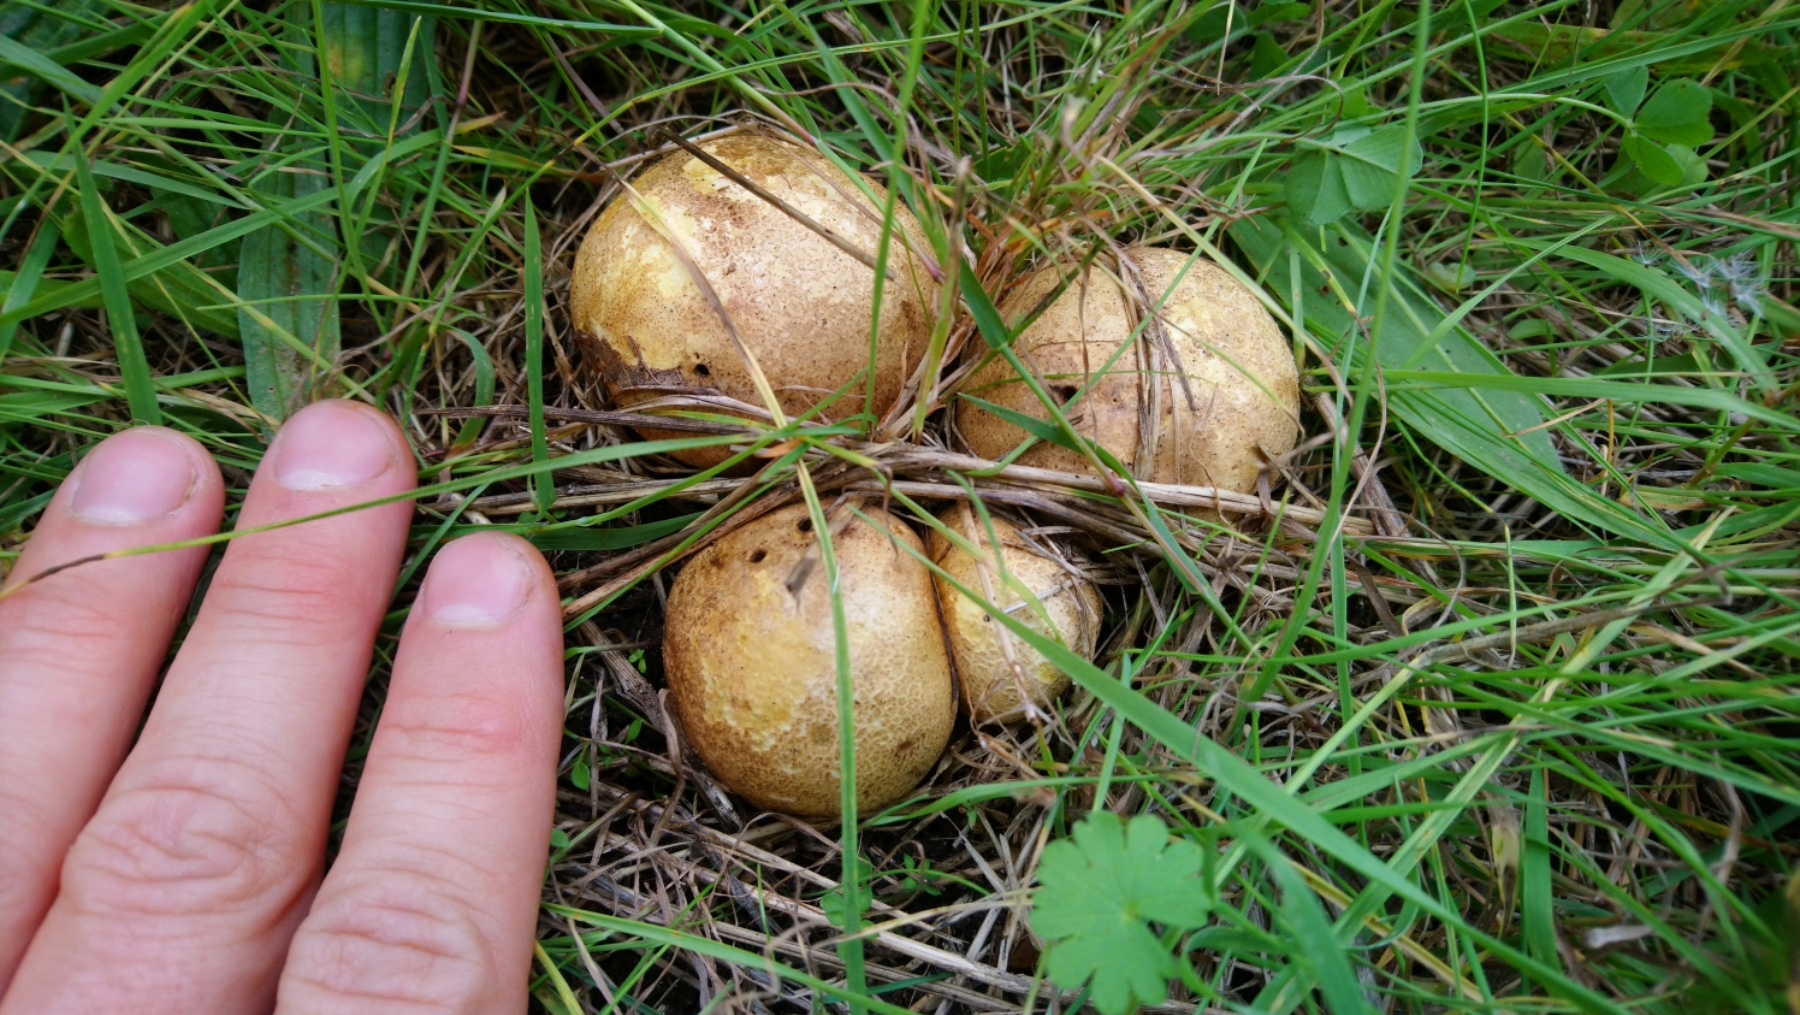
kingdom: Fungi
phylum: Basidiomycota
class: Agaricomycetes
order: Boletales
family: Rhizopogonaceae
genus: Rhizopogon
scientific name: Rhizopogon
